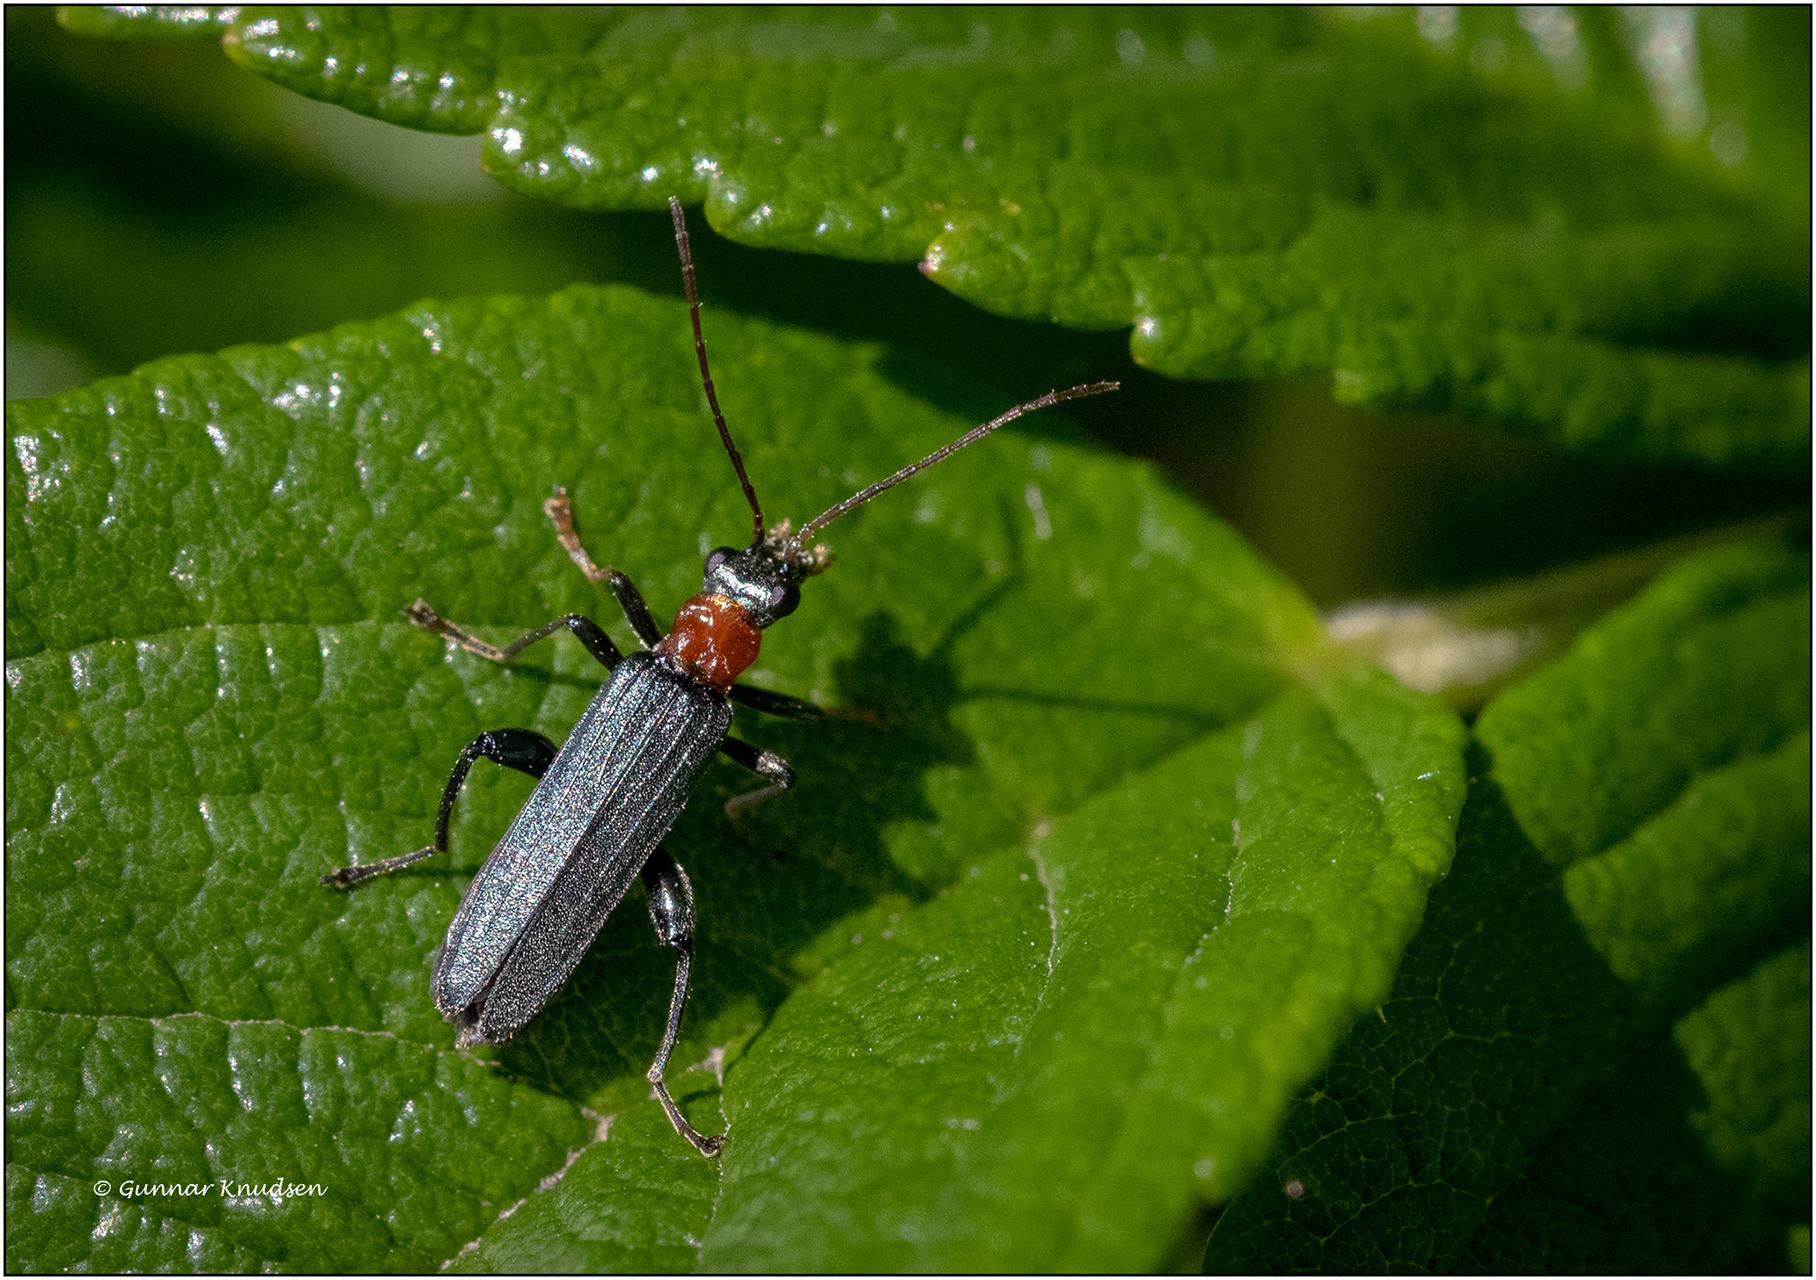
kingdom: Animalia
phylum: Arthropoda
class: Insecta
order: Coleoptera
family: Oedemeridae
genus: Oedemera
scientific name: Oedemera croceicollis
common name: Orangebrystet solbille
